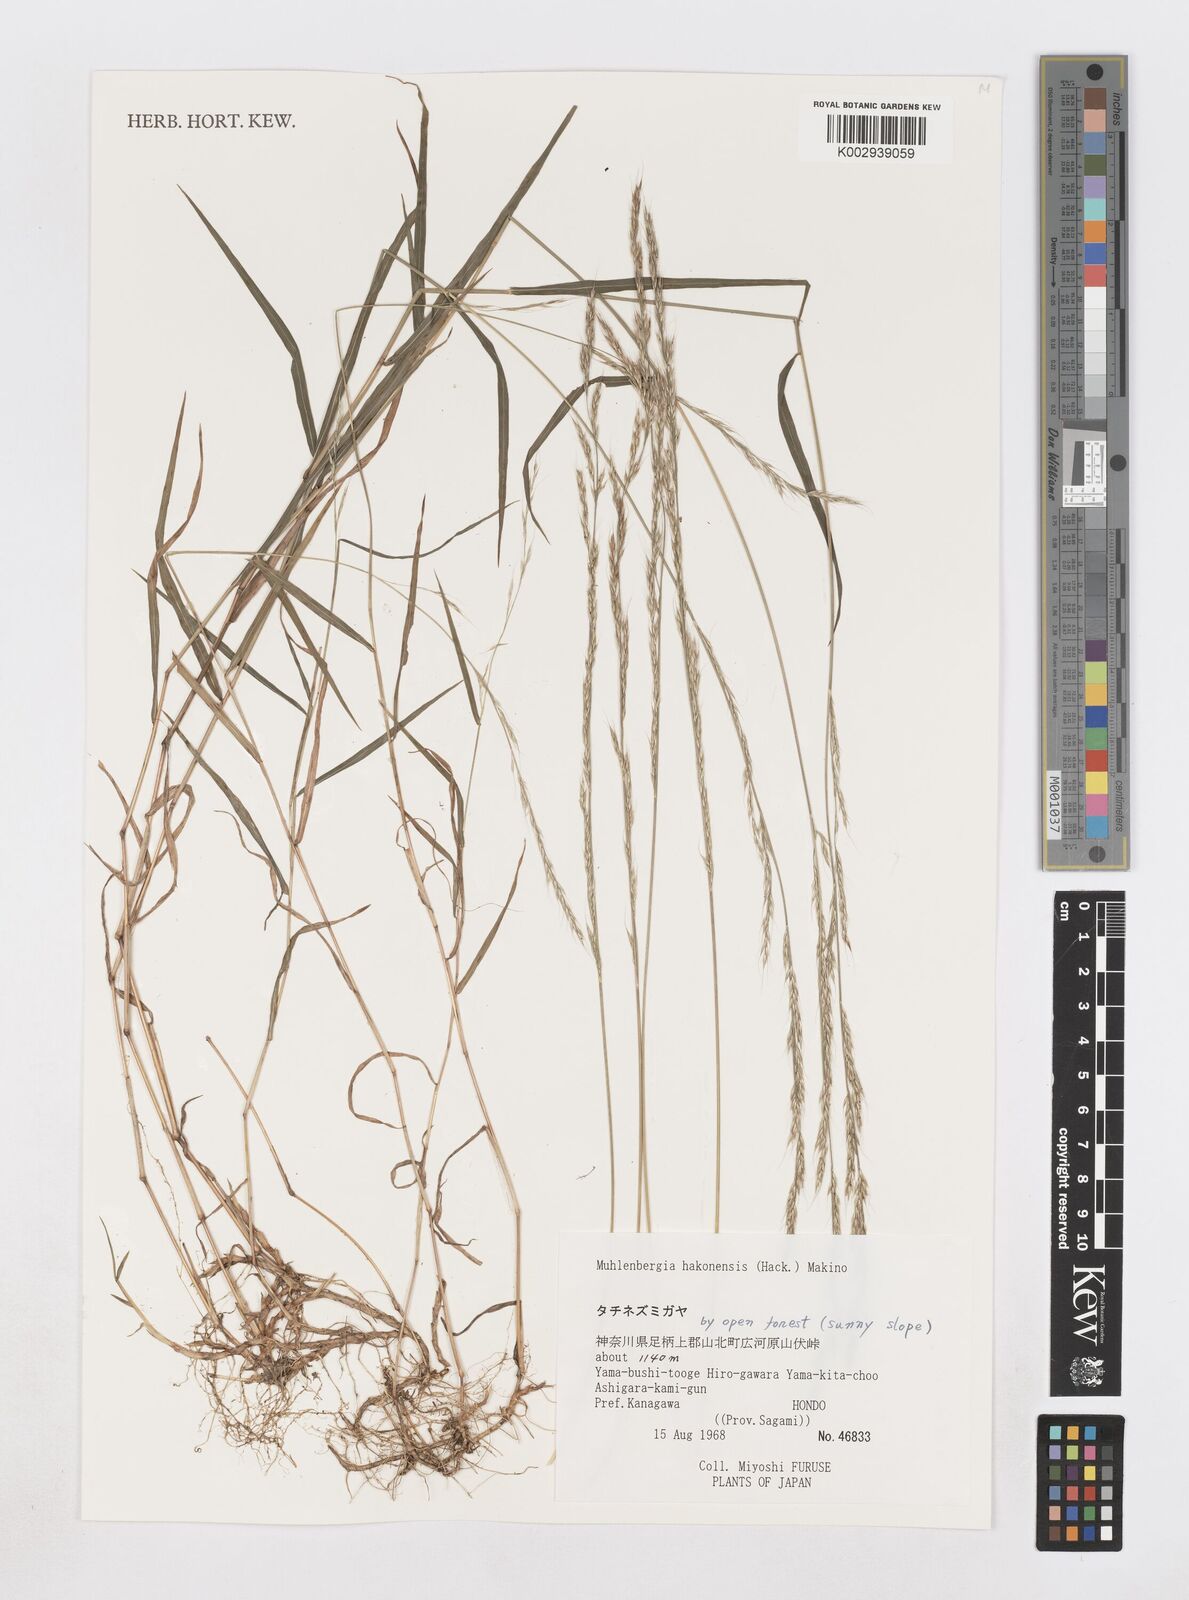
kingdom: Plantae
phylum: Tracheophyta
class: Liliopsida
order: Poales
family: Poaceae
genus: Muhlenbergia
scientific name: Muhlenbergia hakonensis
